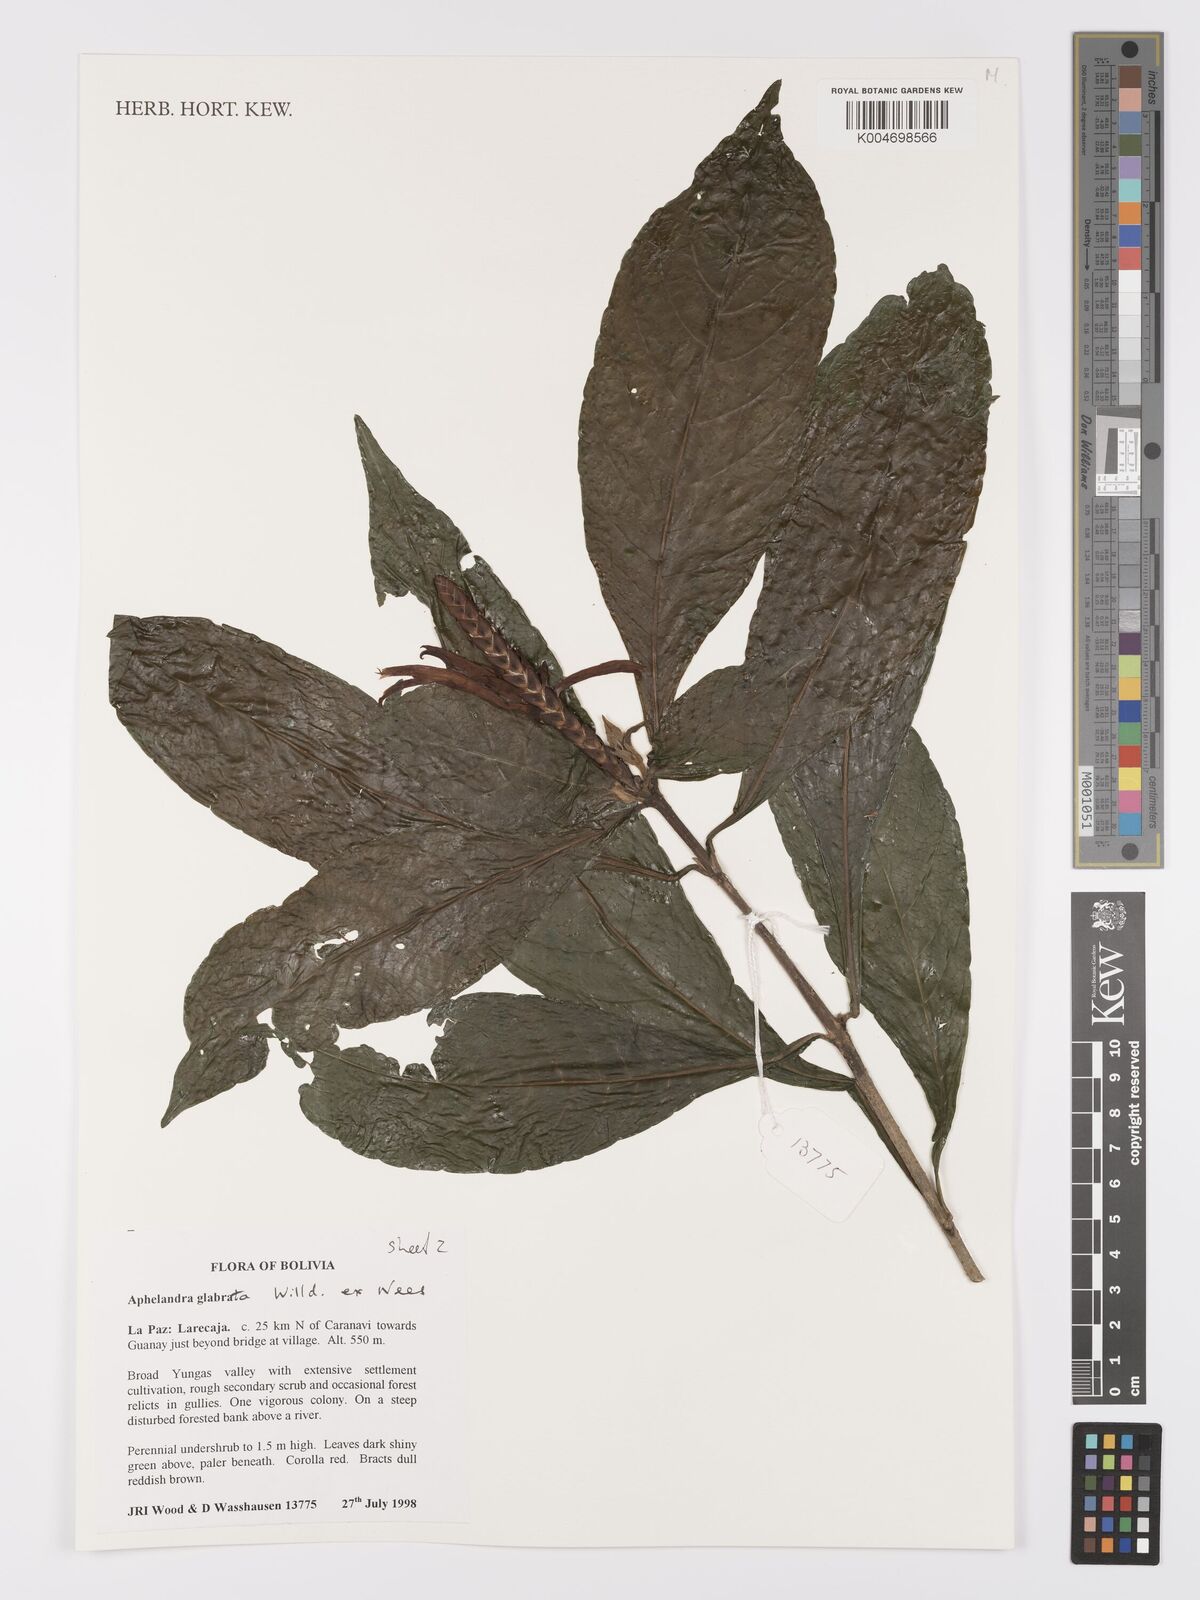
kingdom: Plantae
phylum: Tracheophyta
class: Magnoliopsida
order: Lamiales
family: Acanthaceae
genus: Aphelandra
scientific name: Aphelandra glabrata
